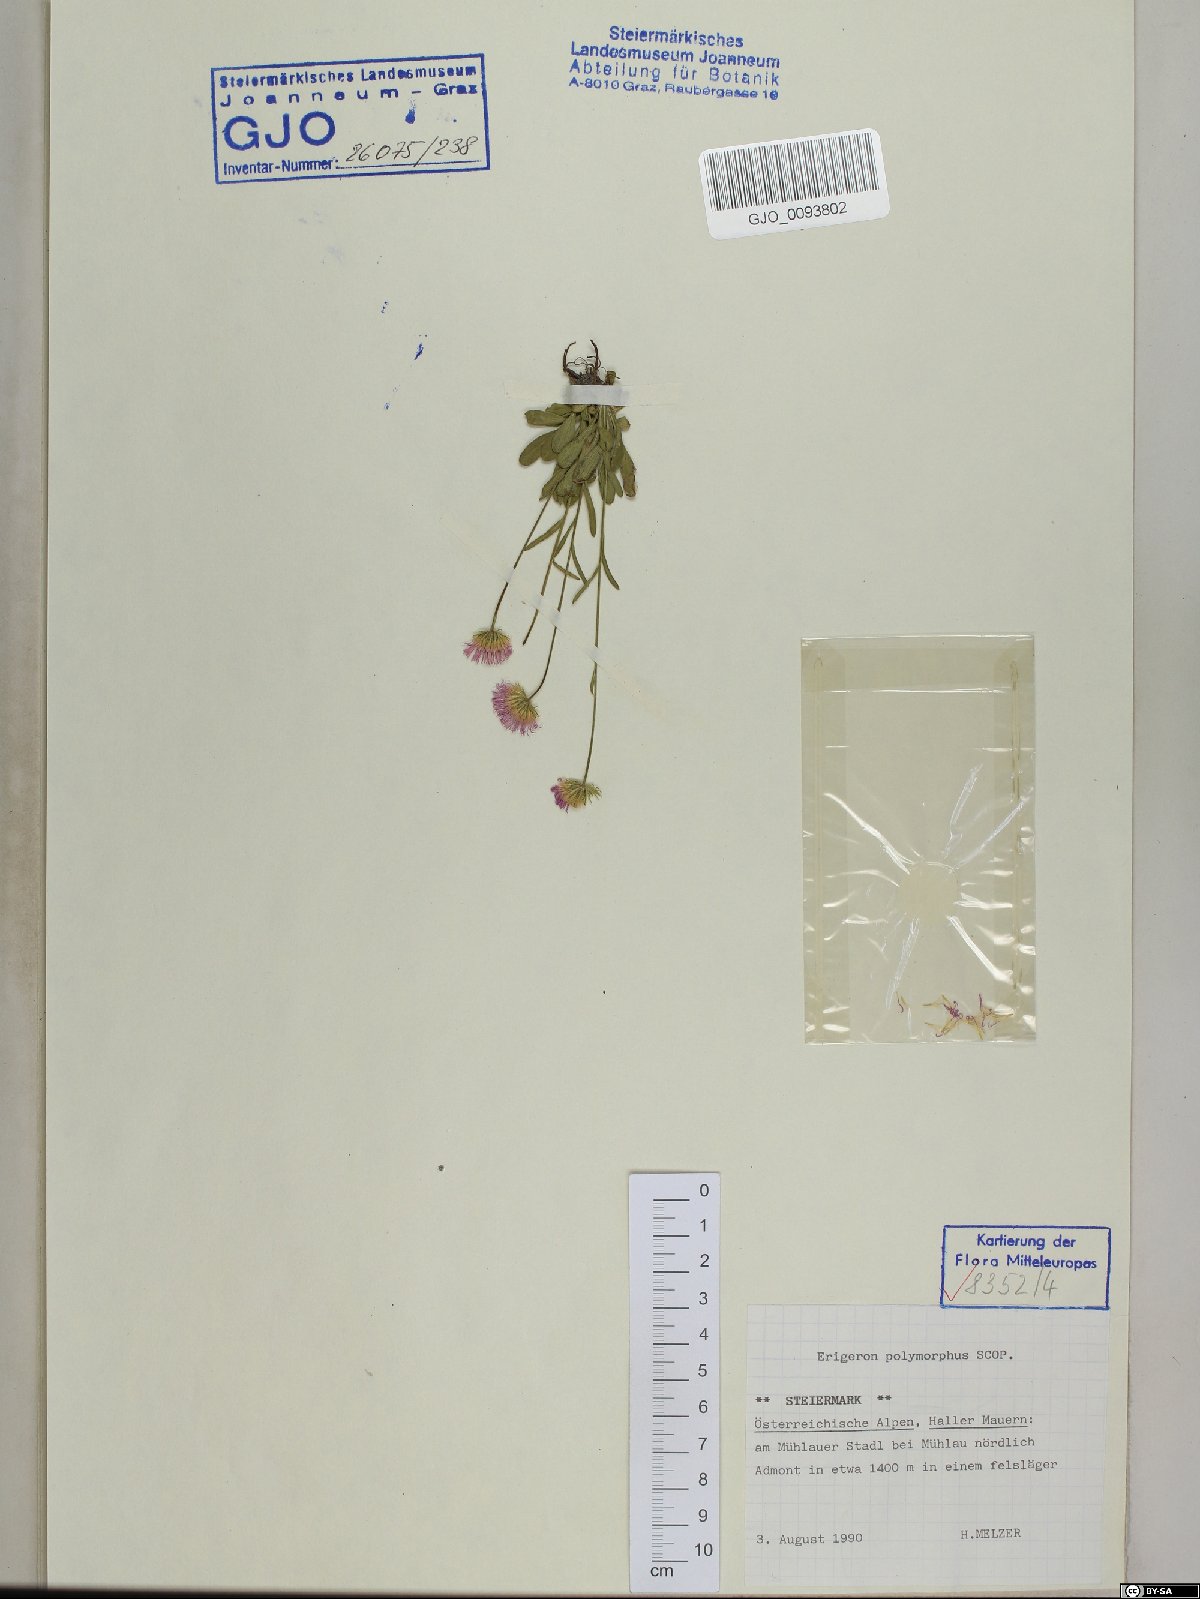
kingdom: Plantae
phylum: Tracheophyta
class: Magnoliopsida
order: Asterales
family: Asteraceae
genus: Erigeron
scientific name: Erigeron alpinus
